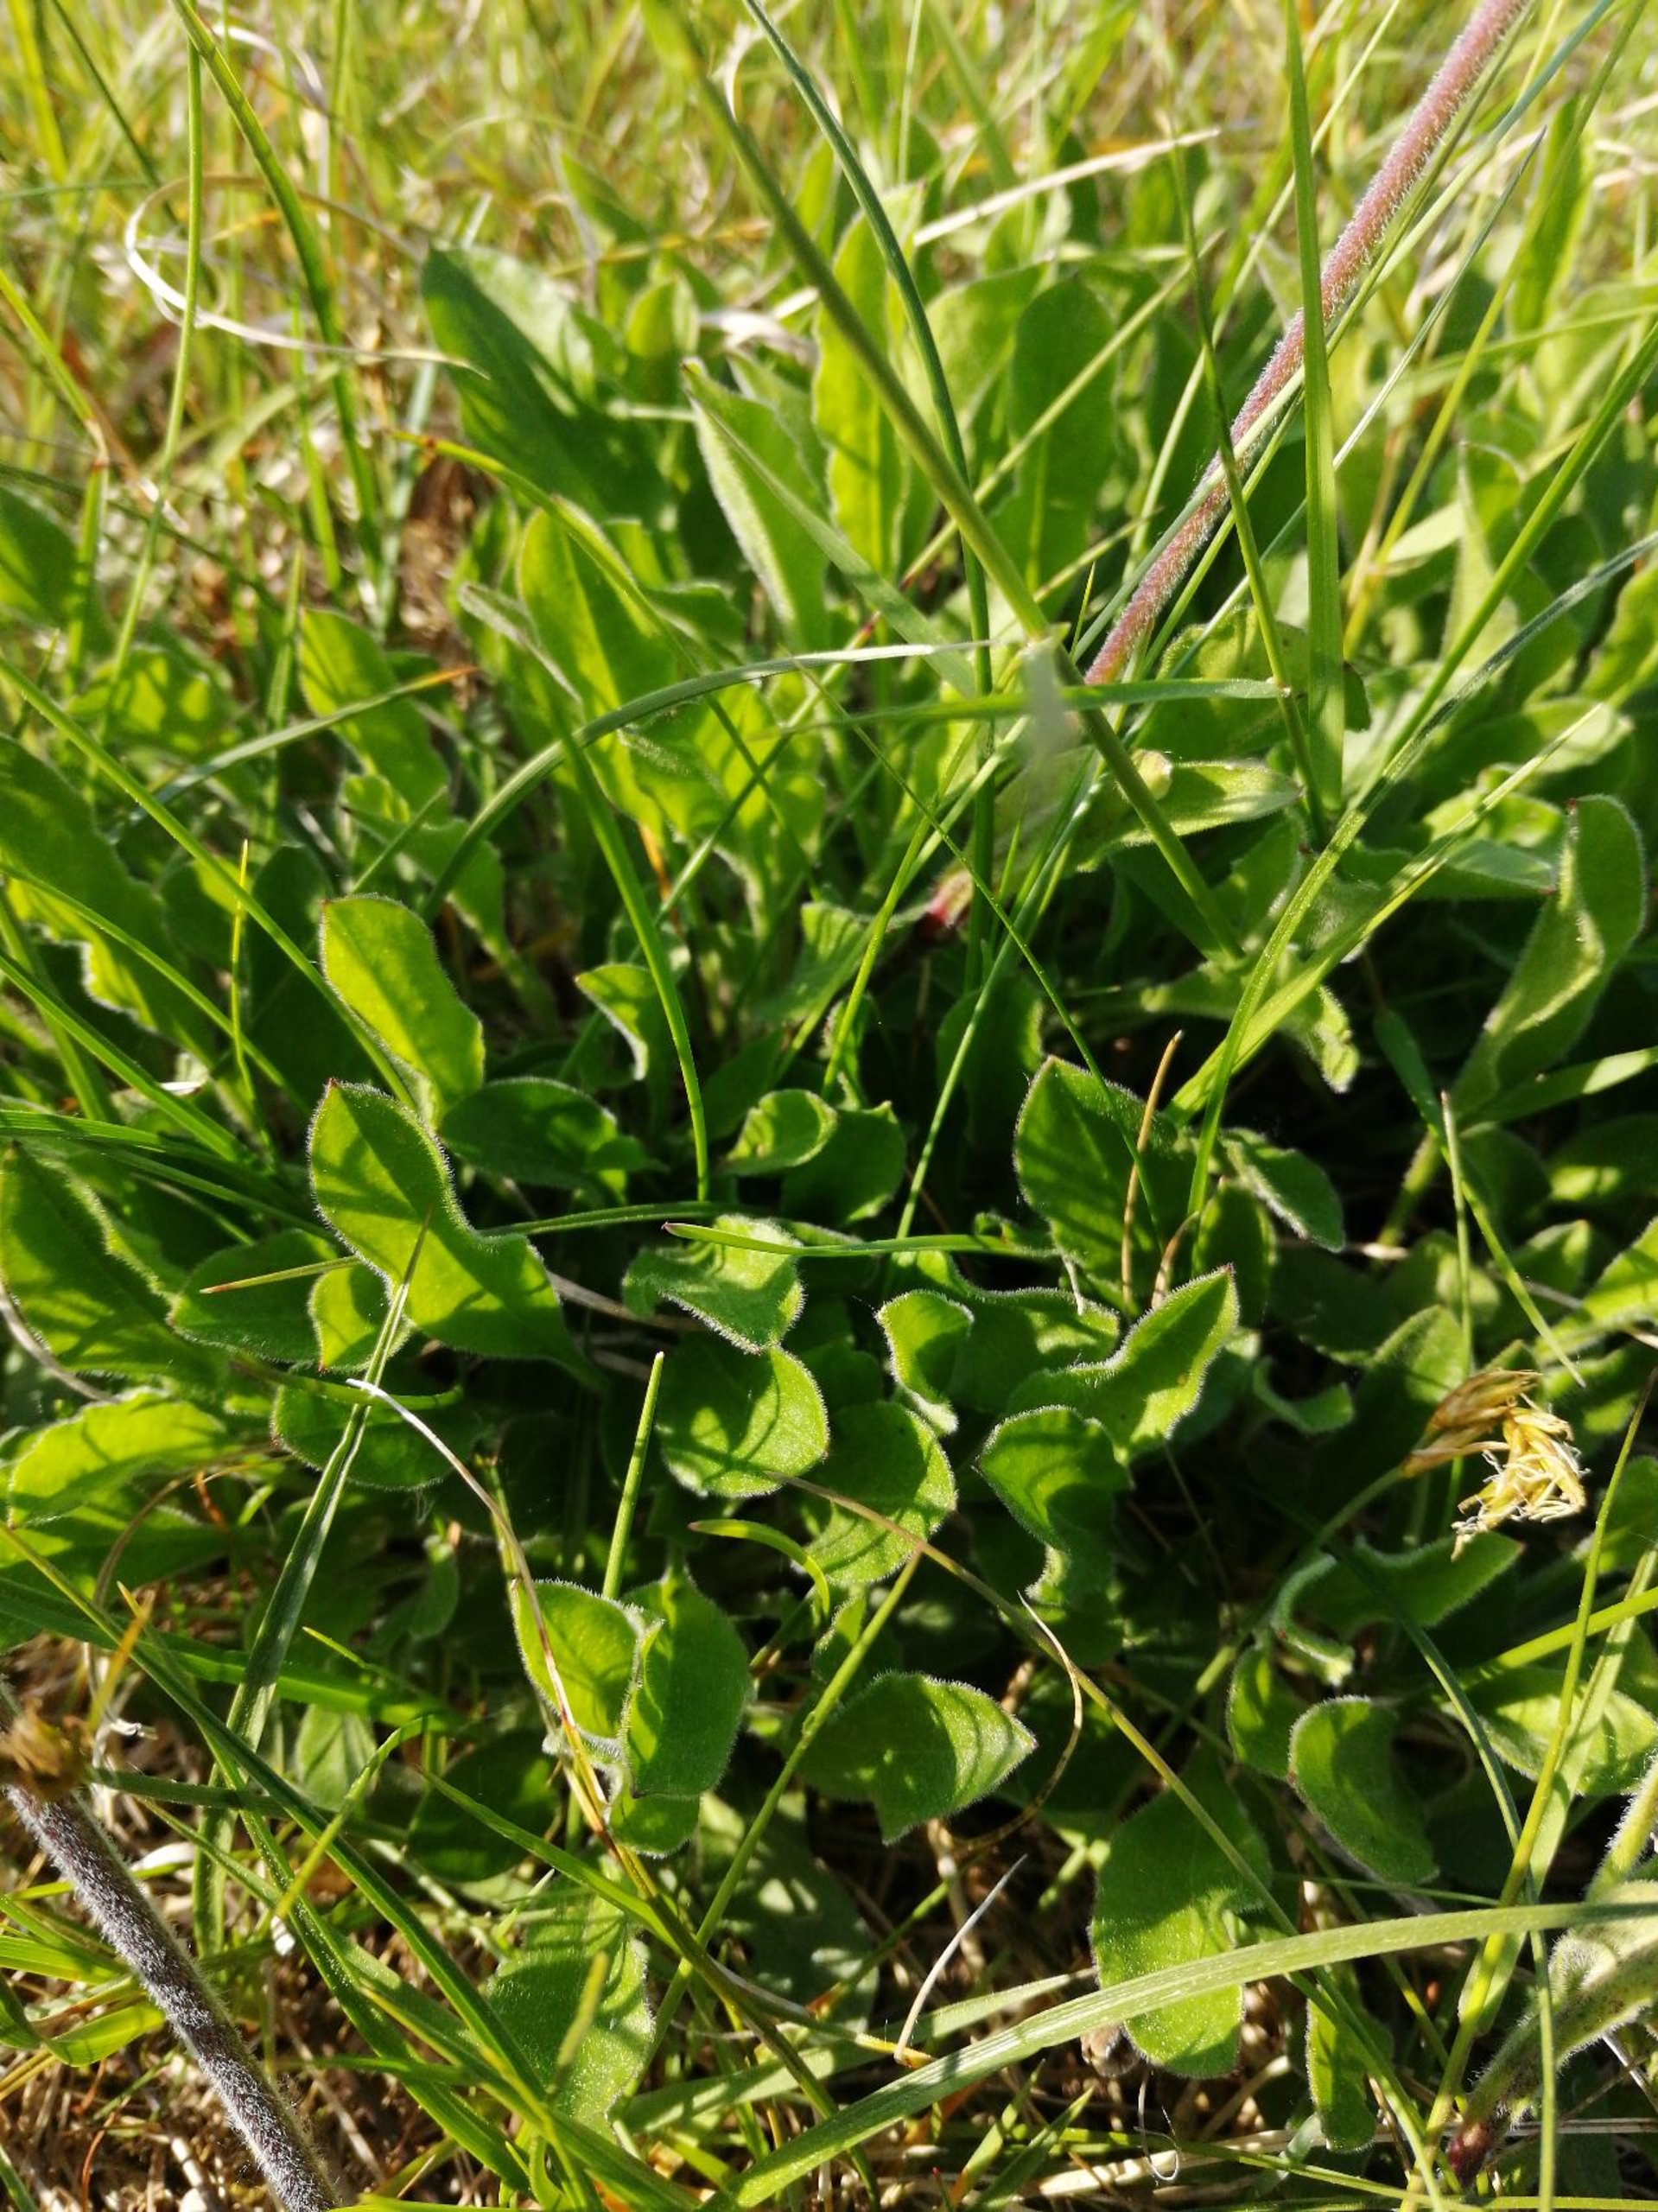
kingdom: Plantae
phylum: Tracheophyta
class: Magnoliopsida
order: Caryophyllales
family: Caryophyllaceae
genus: Silene
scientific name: Silene nutans
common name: Nikkende limurt
